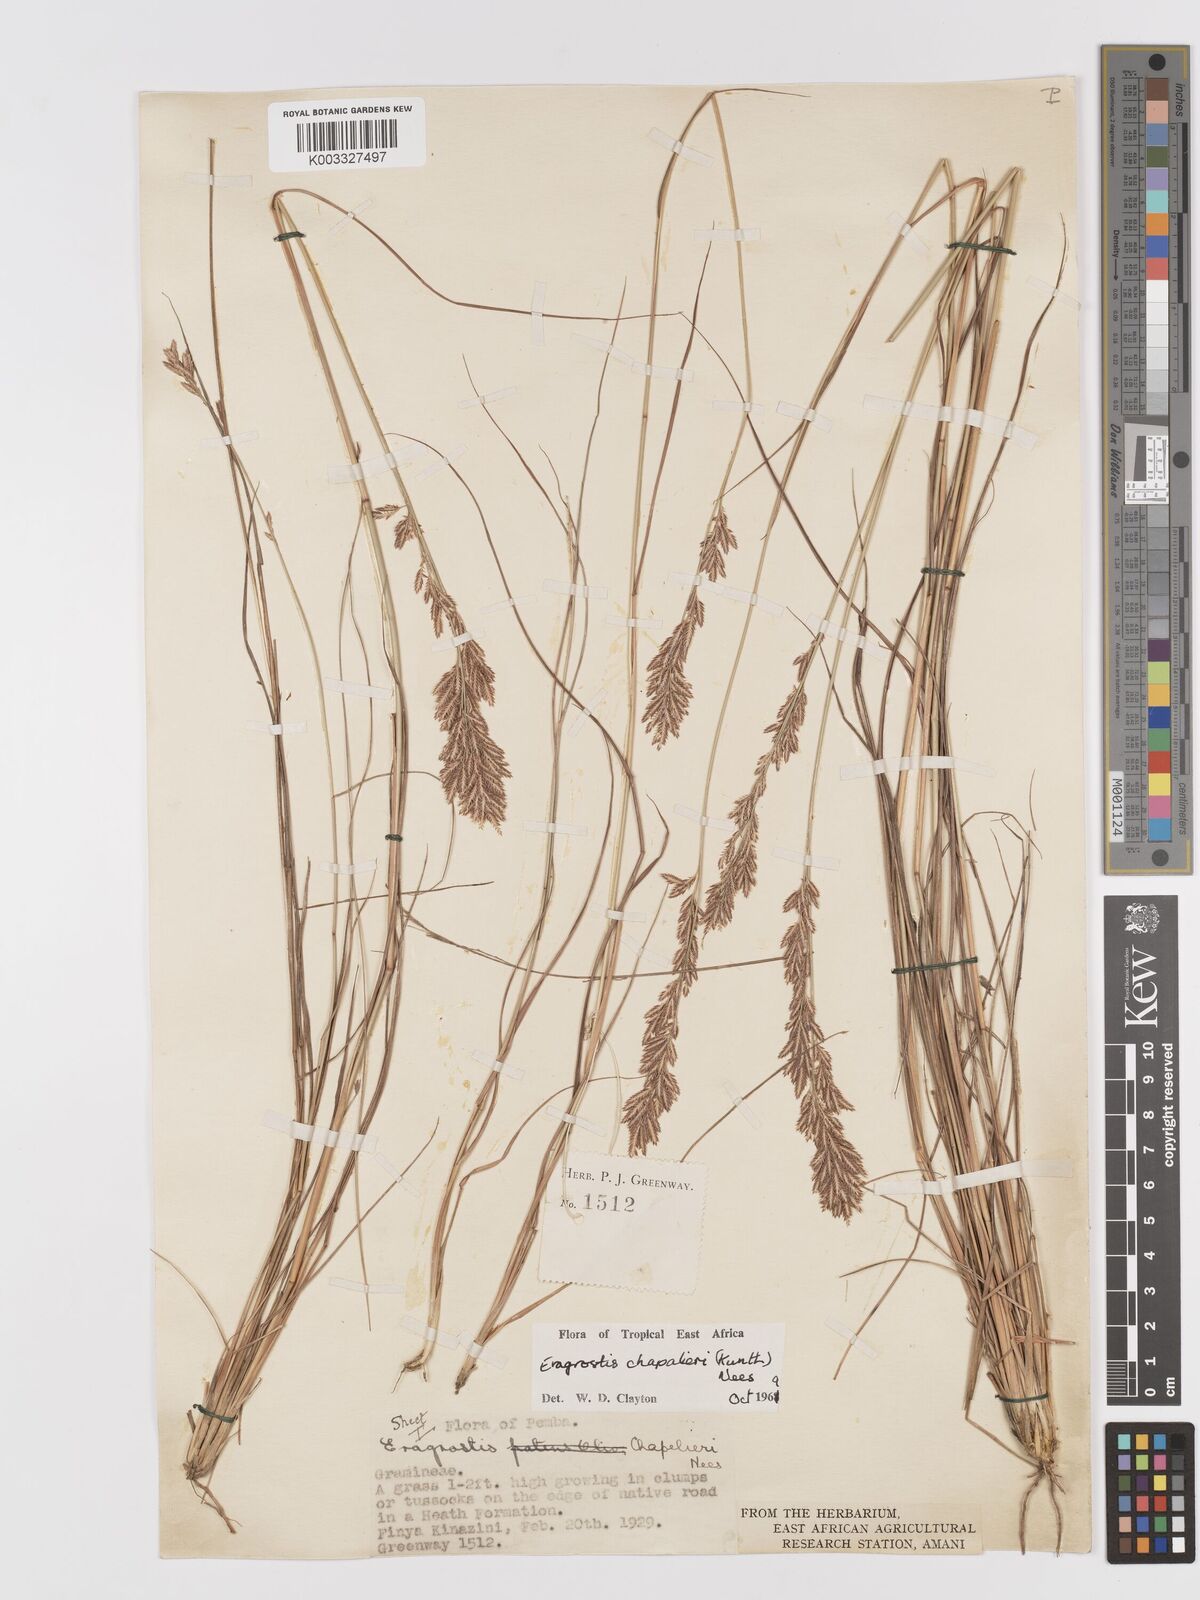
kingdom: Plantae
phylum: Tracheophyta
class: Liliopsida
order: Poales
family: Poaceae
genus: Eragrostis
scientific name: Eragrostis chapelieri
